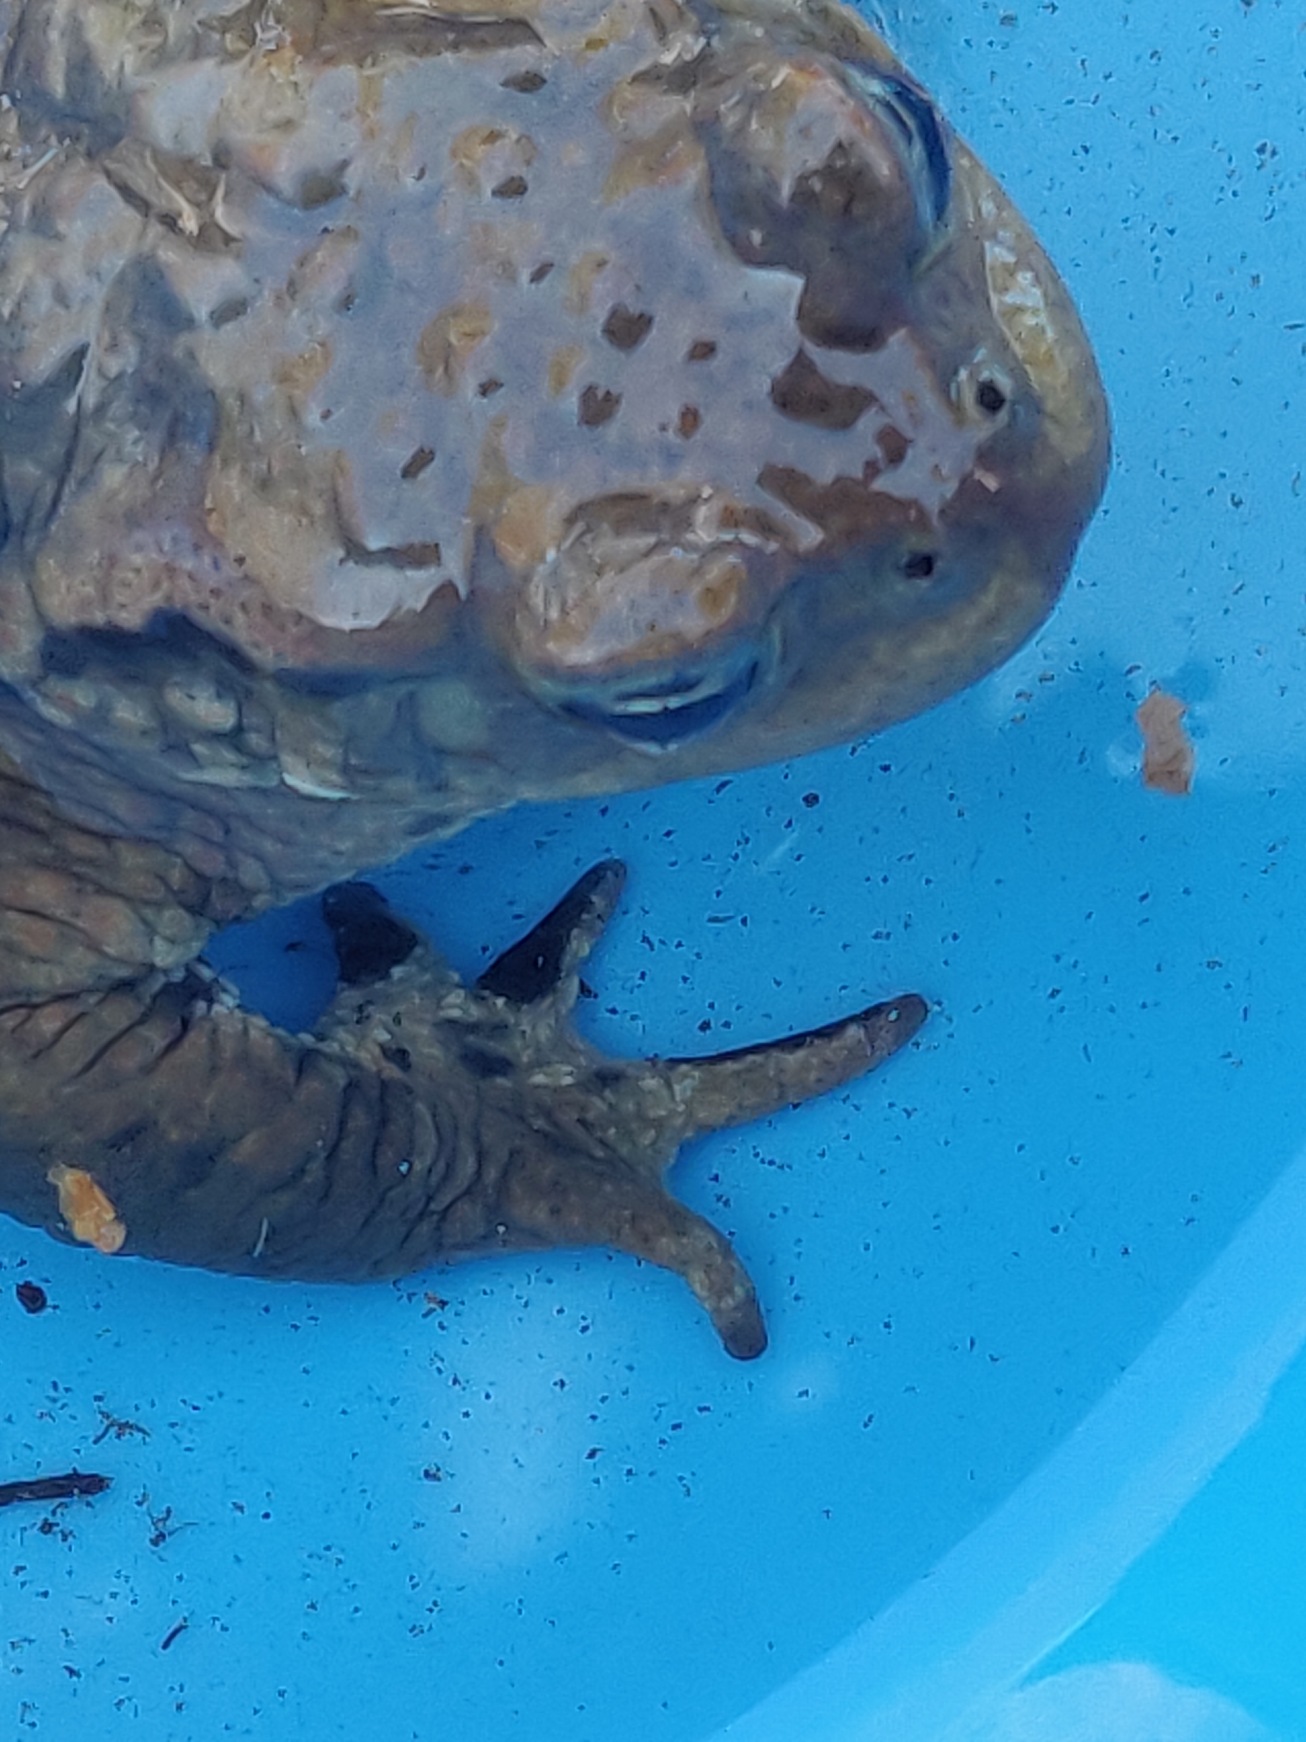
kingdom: Animalia
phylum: Chordata
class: Amphibia
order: Anura
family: Bufonidae
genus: Bufo
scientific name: Bufo bufo
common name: Skrubtudse
